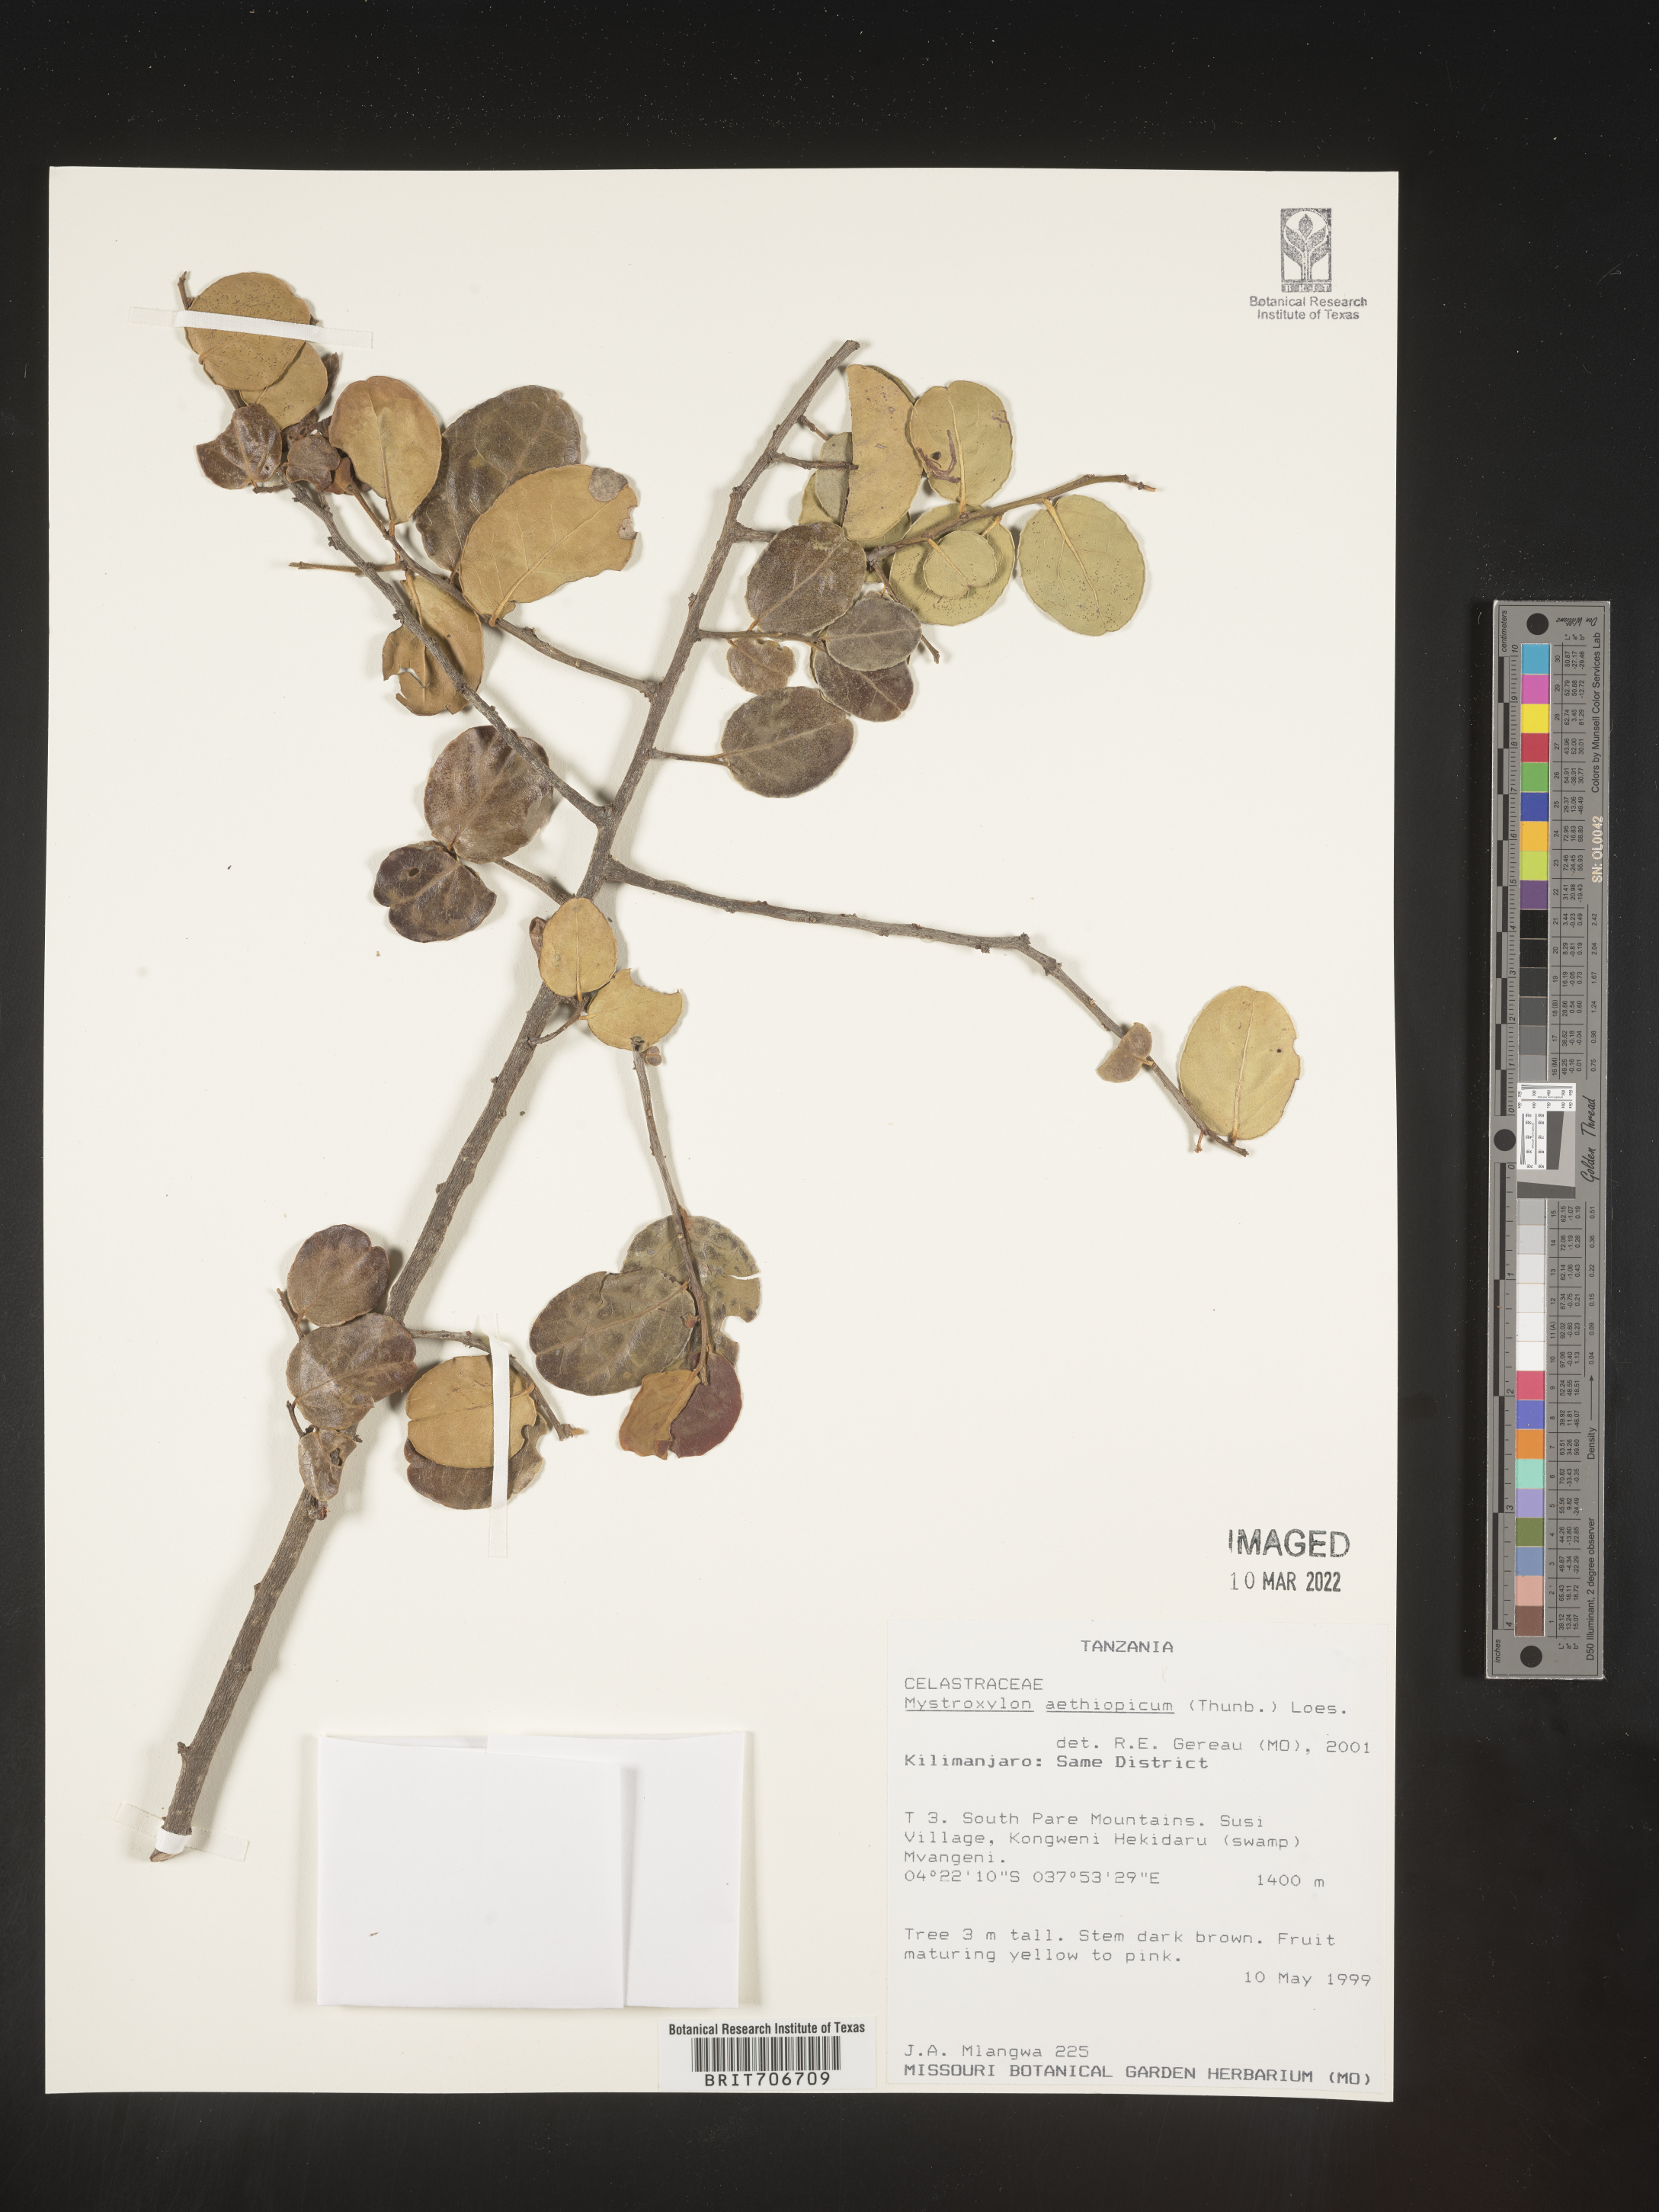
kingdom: Plantae
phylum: Tracheophyta
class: Magnoliopsida
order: Celastrales
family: Celastraceae
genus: Mystroxylon
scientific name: Mystroxylon
